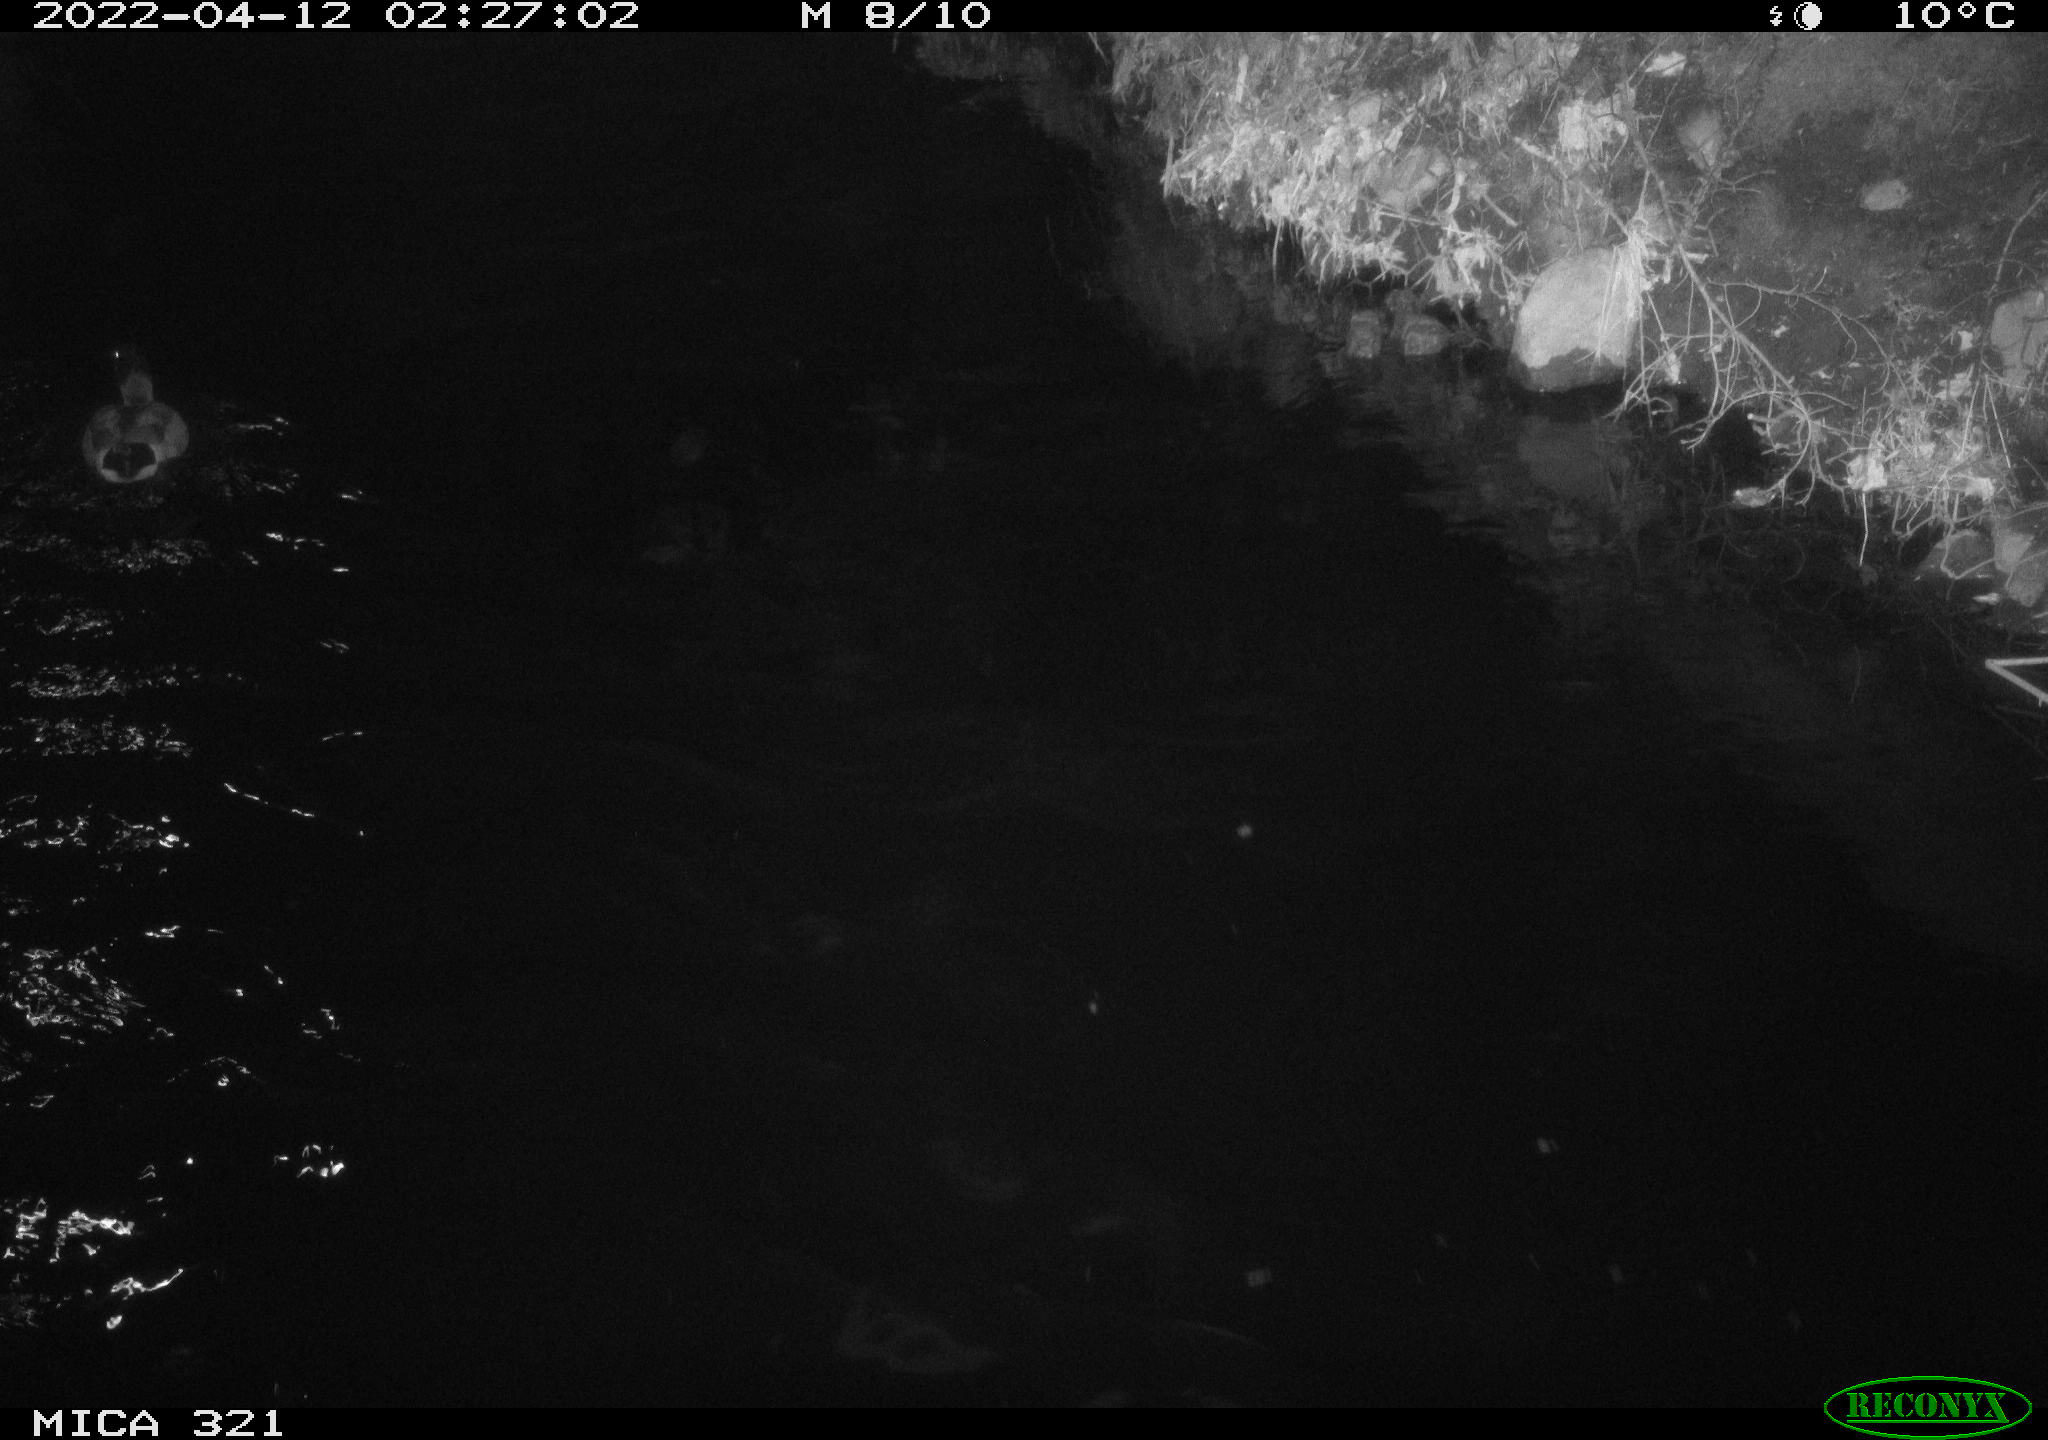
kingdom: Animalia
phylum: Chordata
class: Aves
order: Anseriformes
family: Anatidae
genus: Anas
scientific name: Anas platyrhynchos
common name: Mallard
